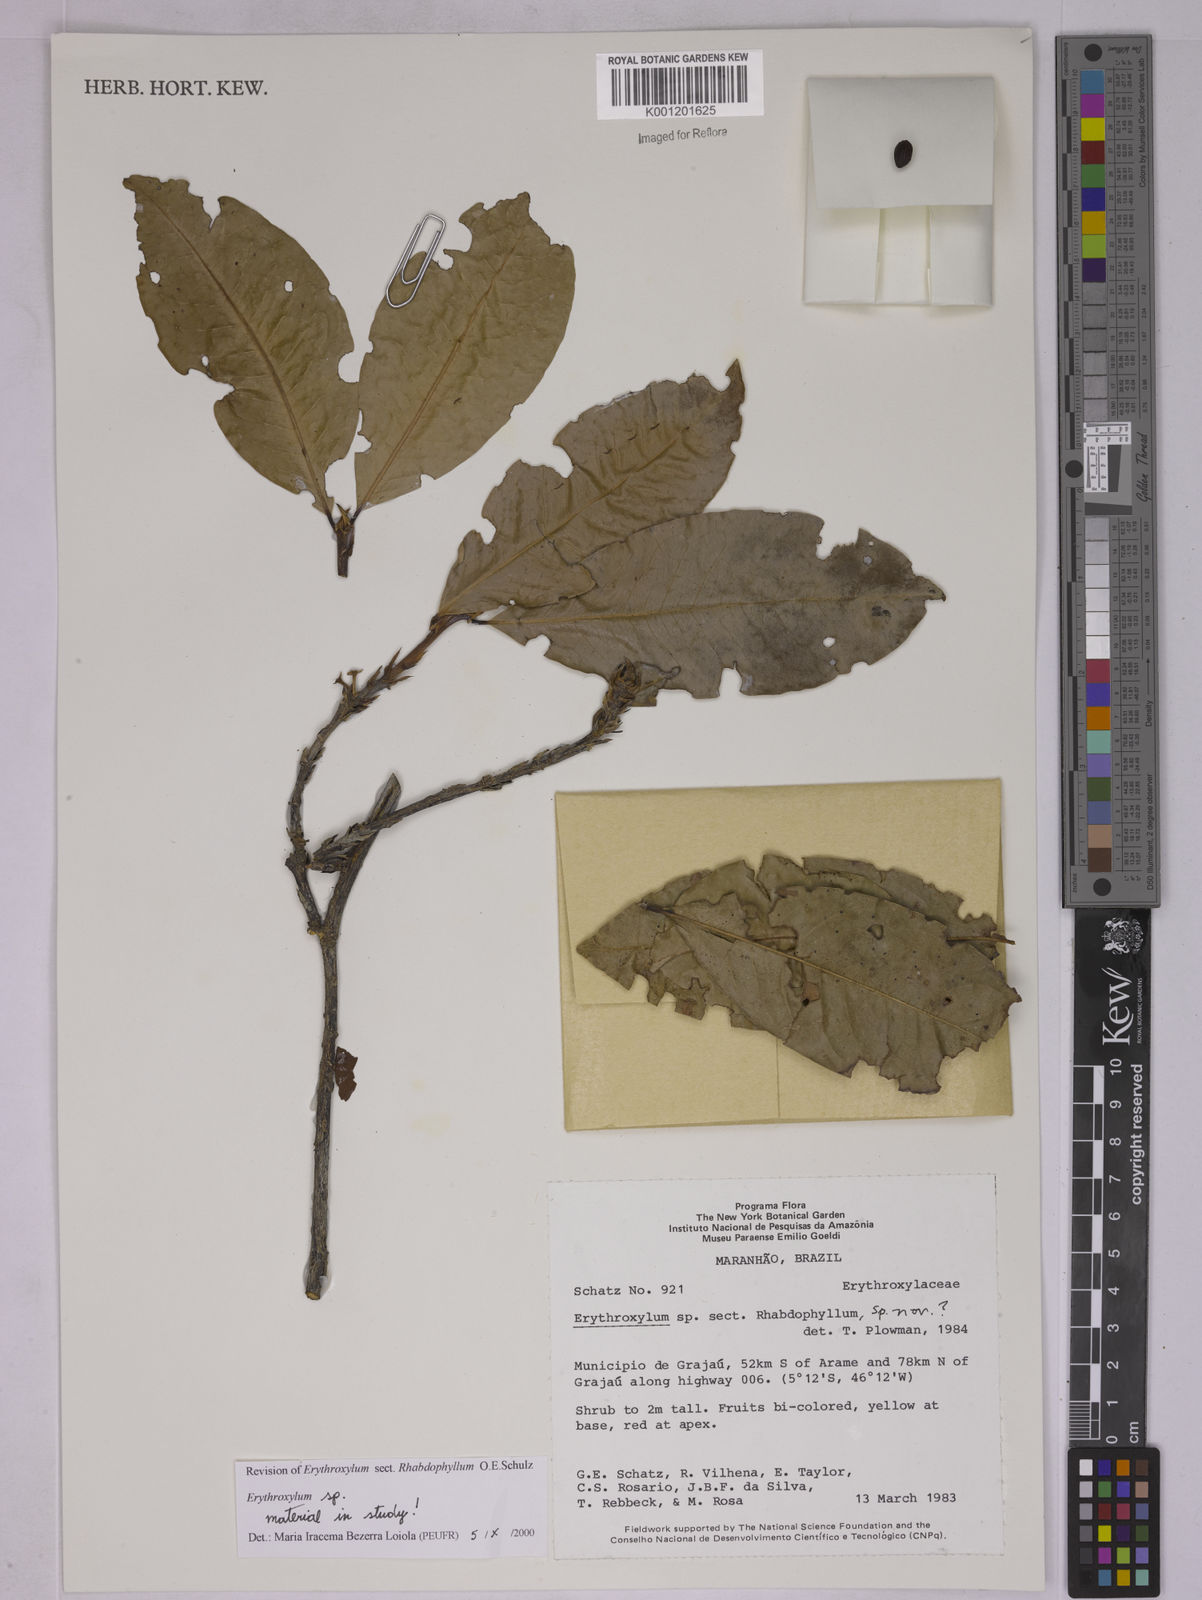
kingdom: Plantae
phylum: Tracheophyta
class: Magnoliopsida
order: Malpighiales
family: Erythroxylaceae
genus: Erythroxylum
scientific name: Erythroxylum
